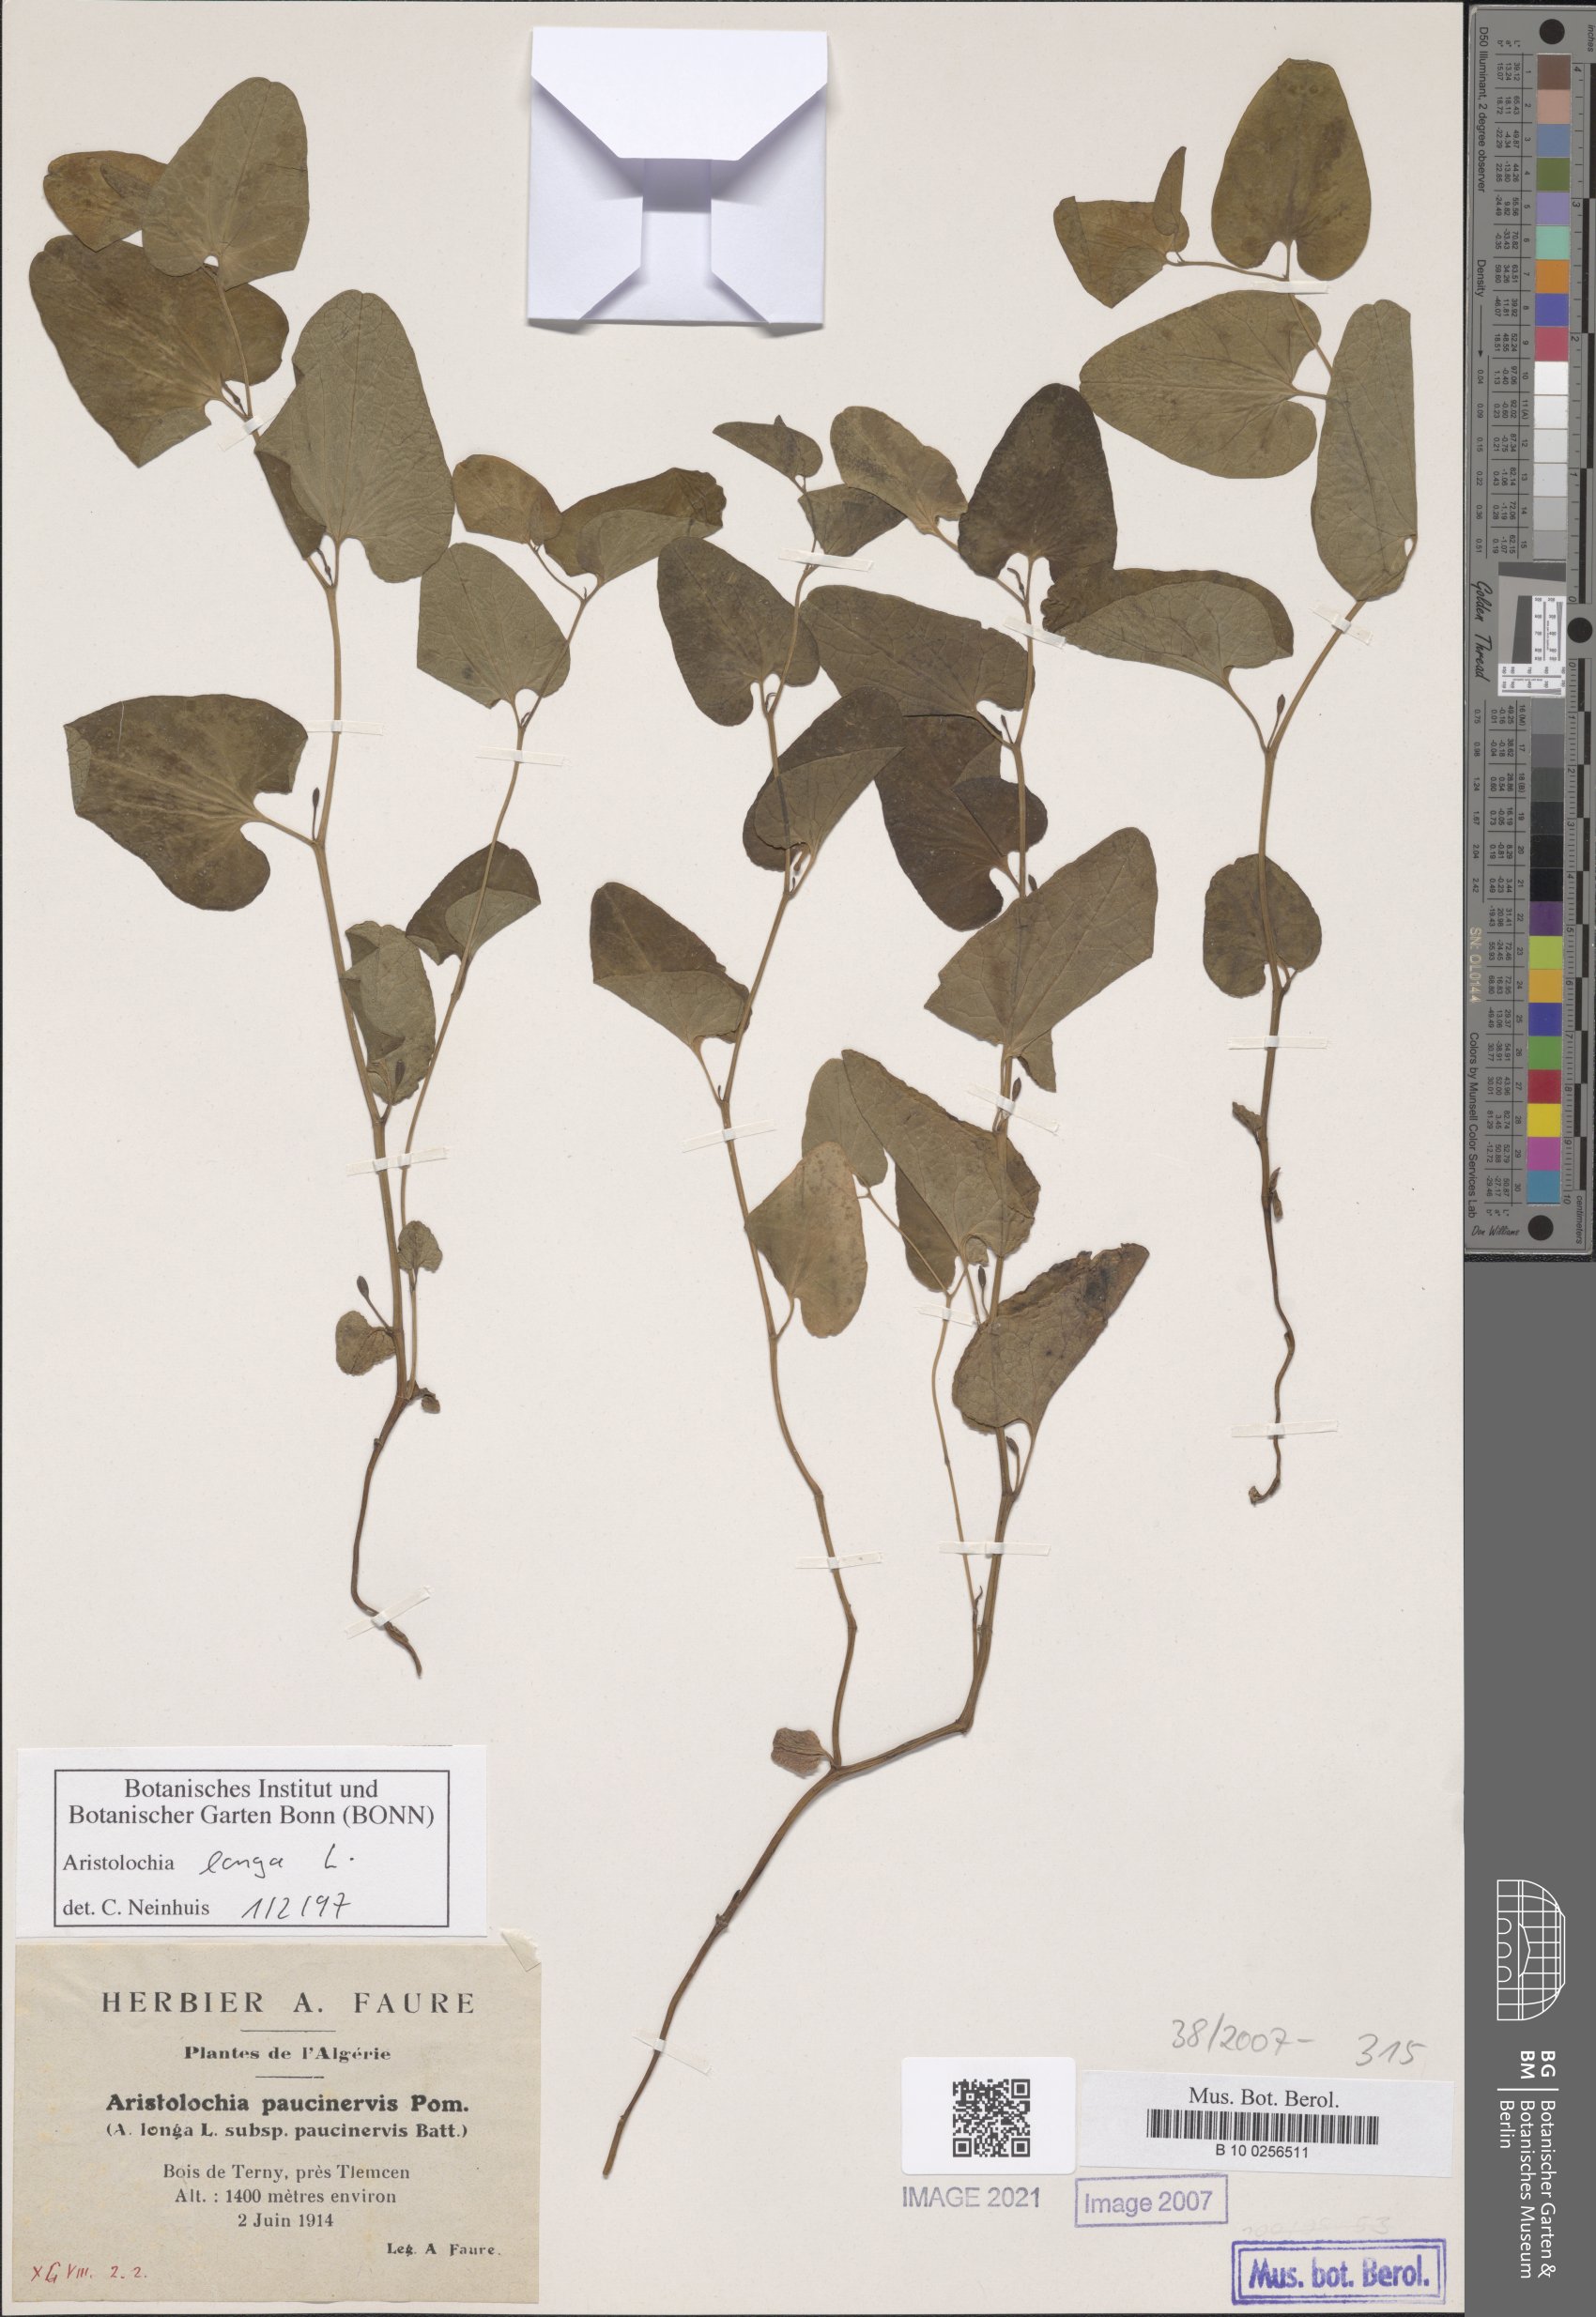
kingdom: Plantae
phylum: Tracheophyta
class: Magnoliopsida
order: Piperales
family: Aristolochiaceae
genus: Aristolochia
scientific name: Aristolochia fontanesii
